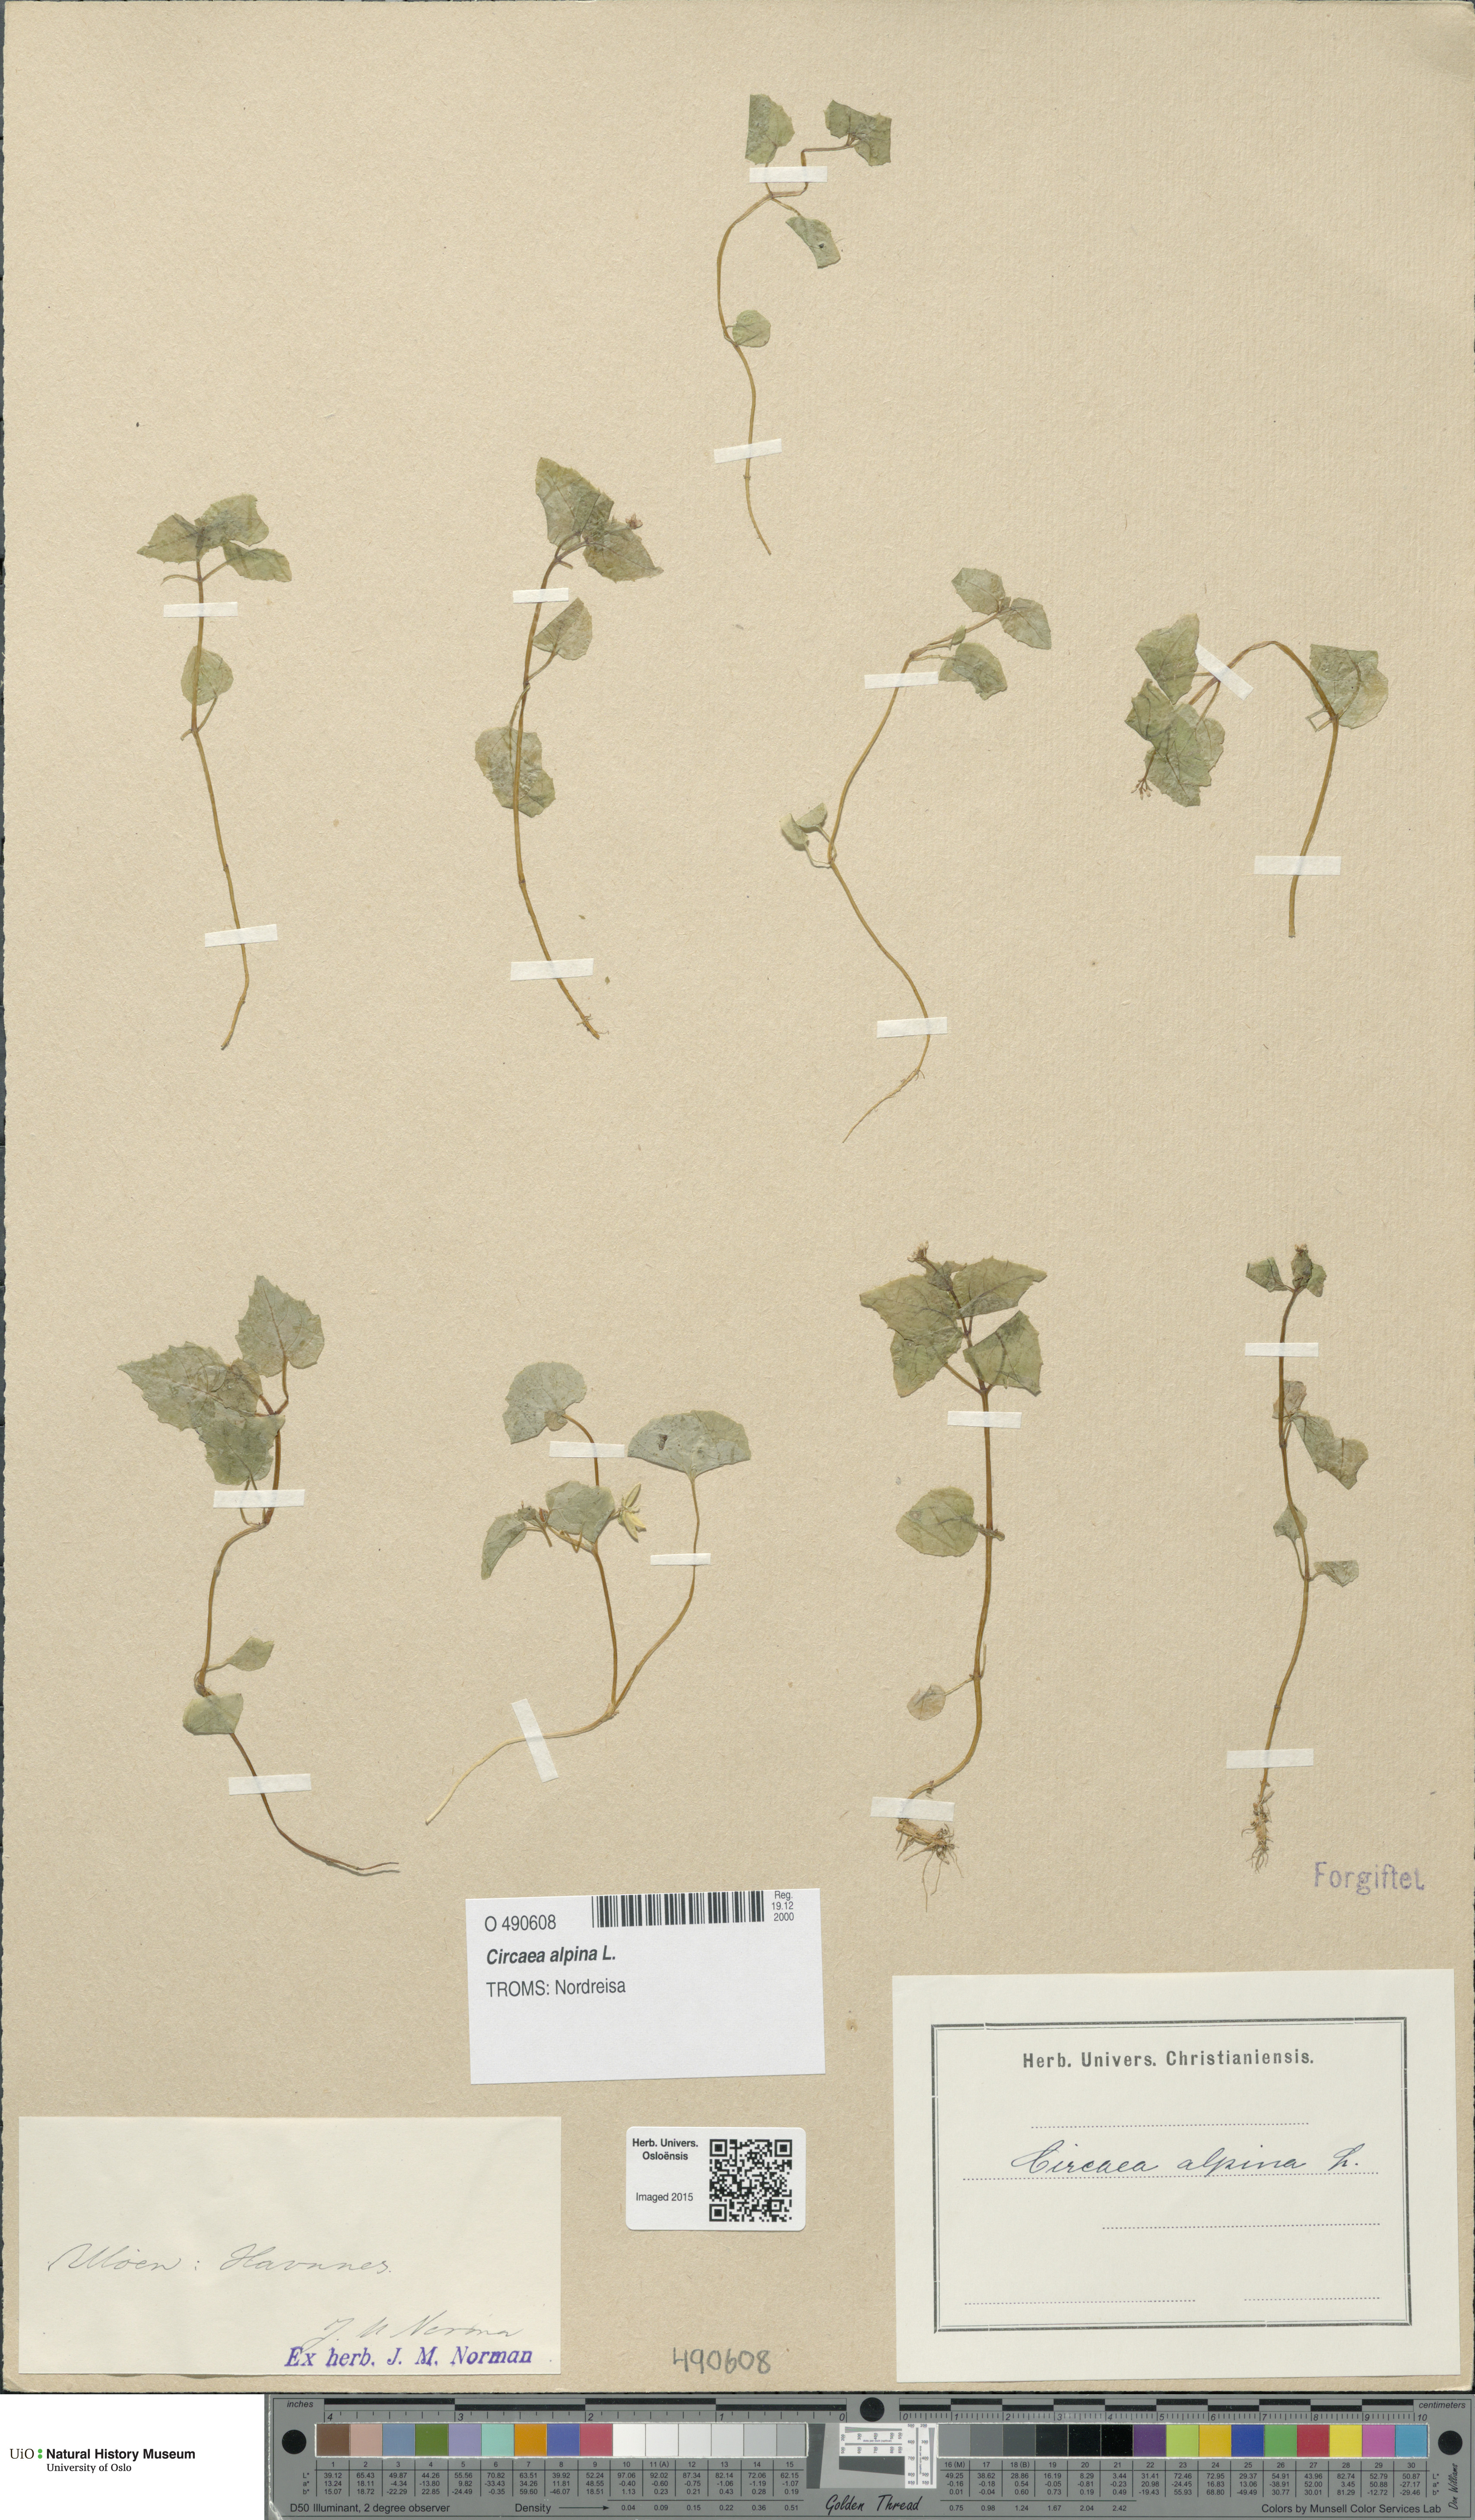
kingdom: Plantae
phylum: Tracheophyta
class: Magnoliopsida
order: Myrtales
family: Onagraceae
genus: Circaea
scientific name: Circaea alpina
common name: Alpine enchanter's-nightshade
